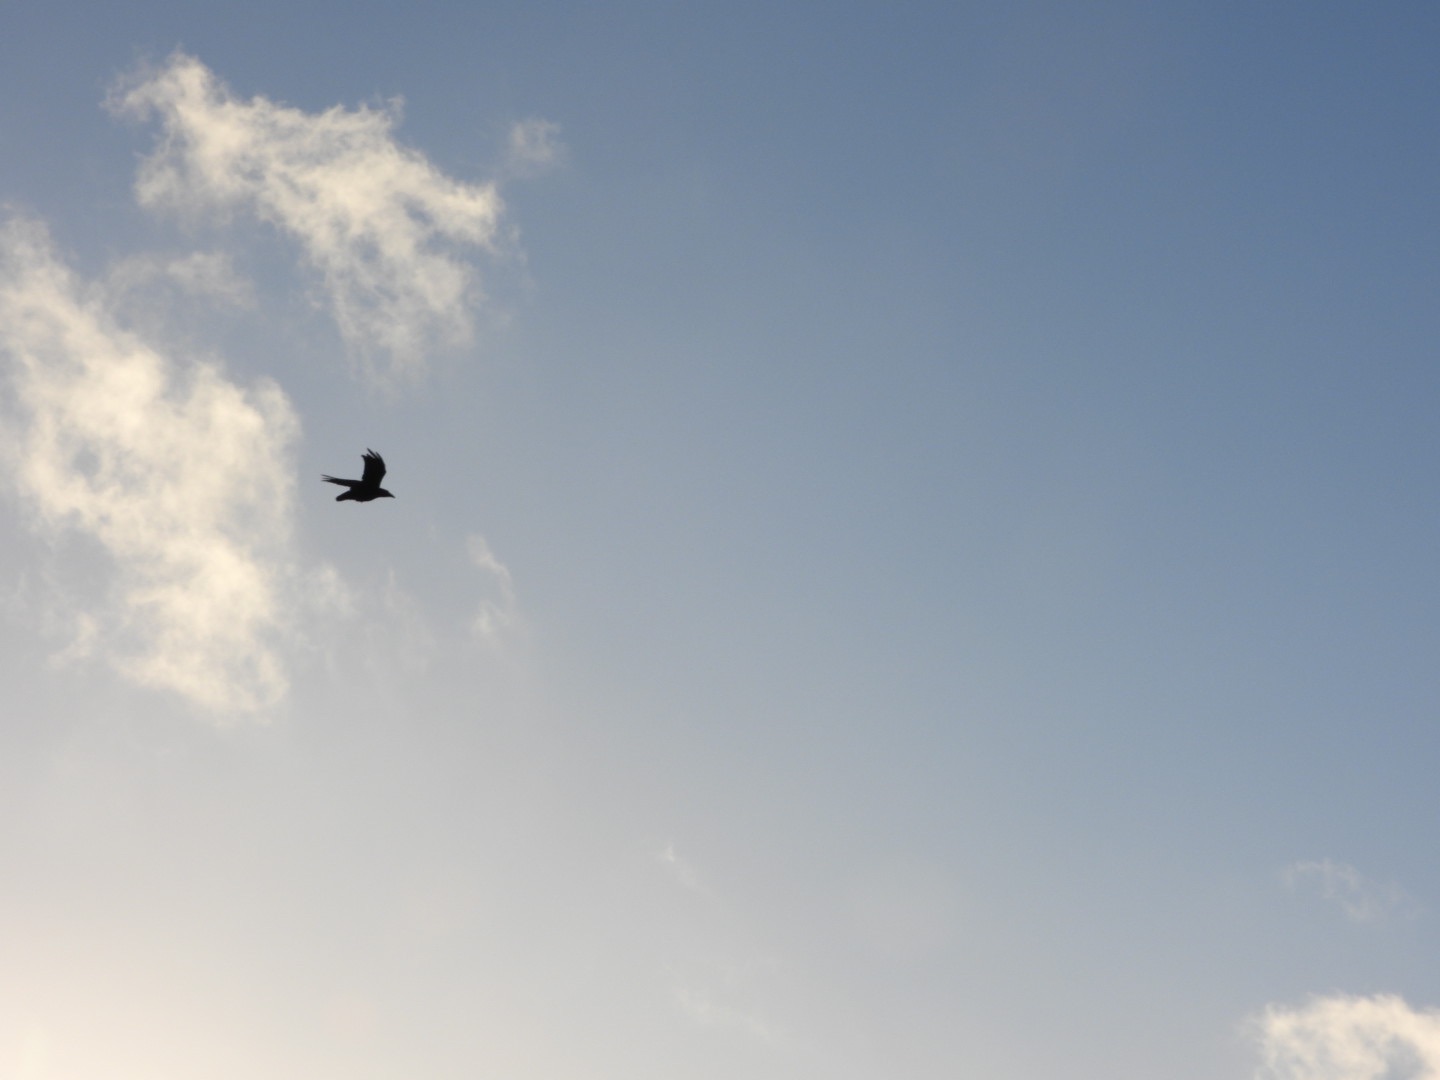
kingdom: Animalia
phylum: Chordata
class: Aves
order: Passeriformes
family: Corvidae
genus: Corvus
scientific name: Corvus corax
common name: Ravn
